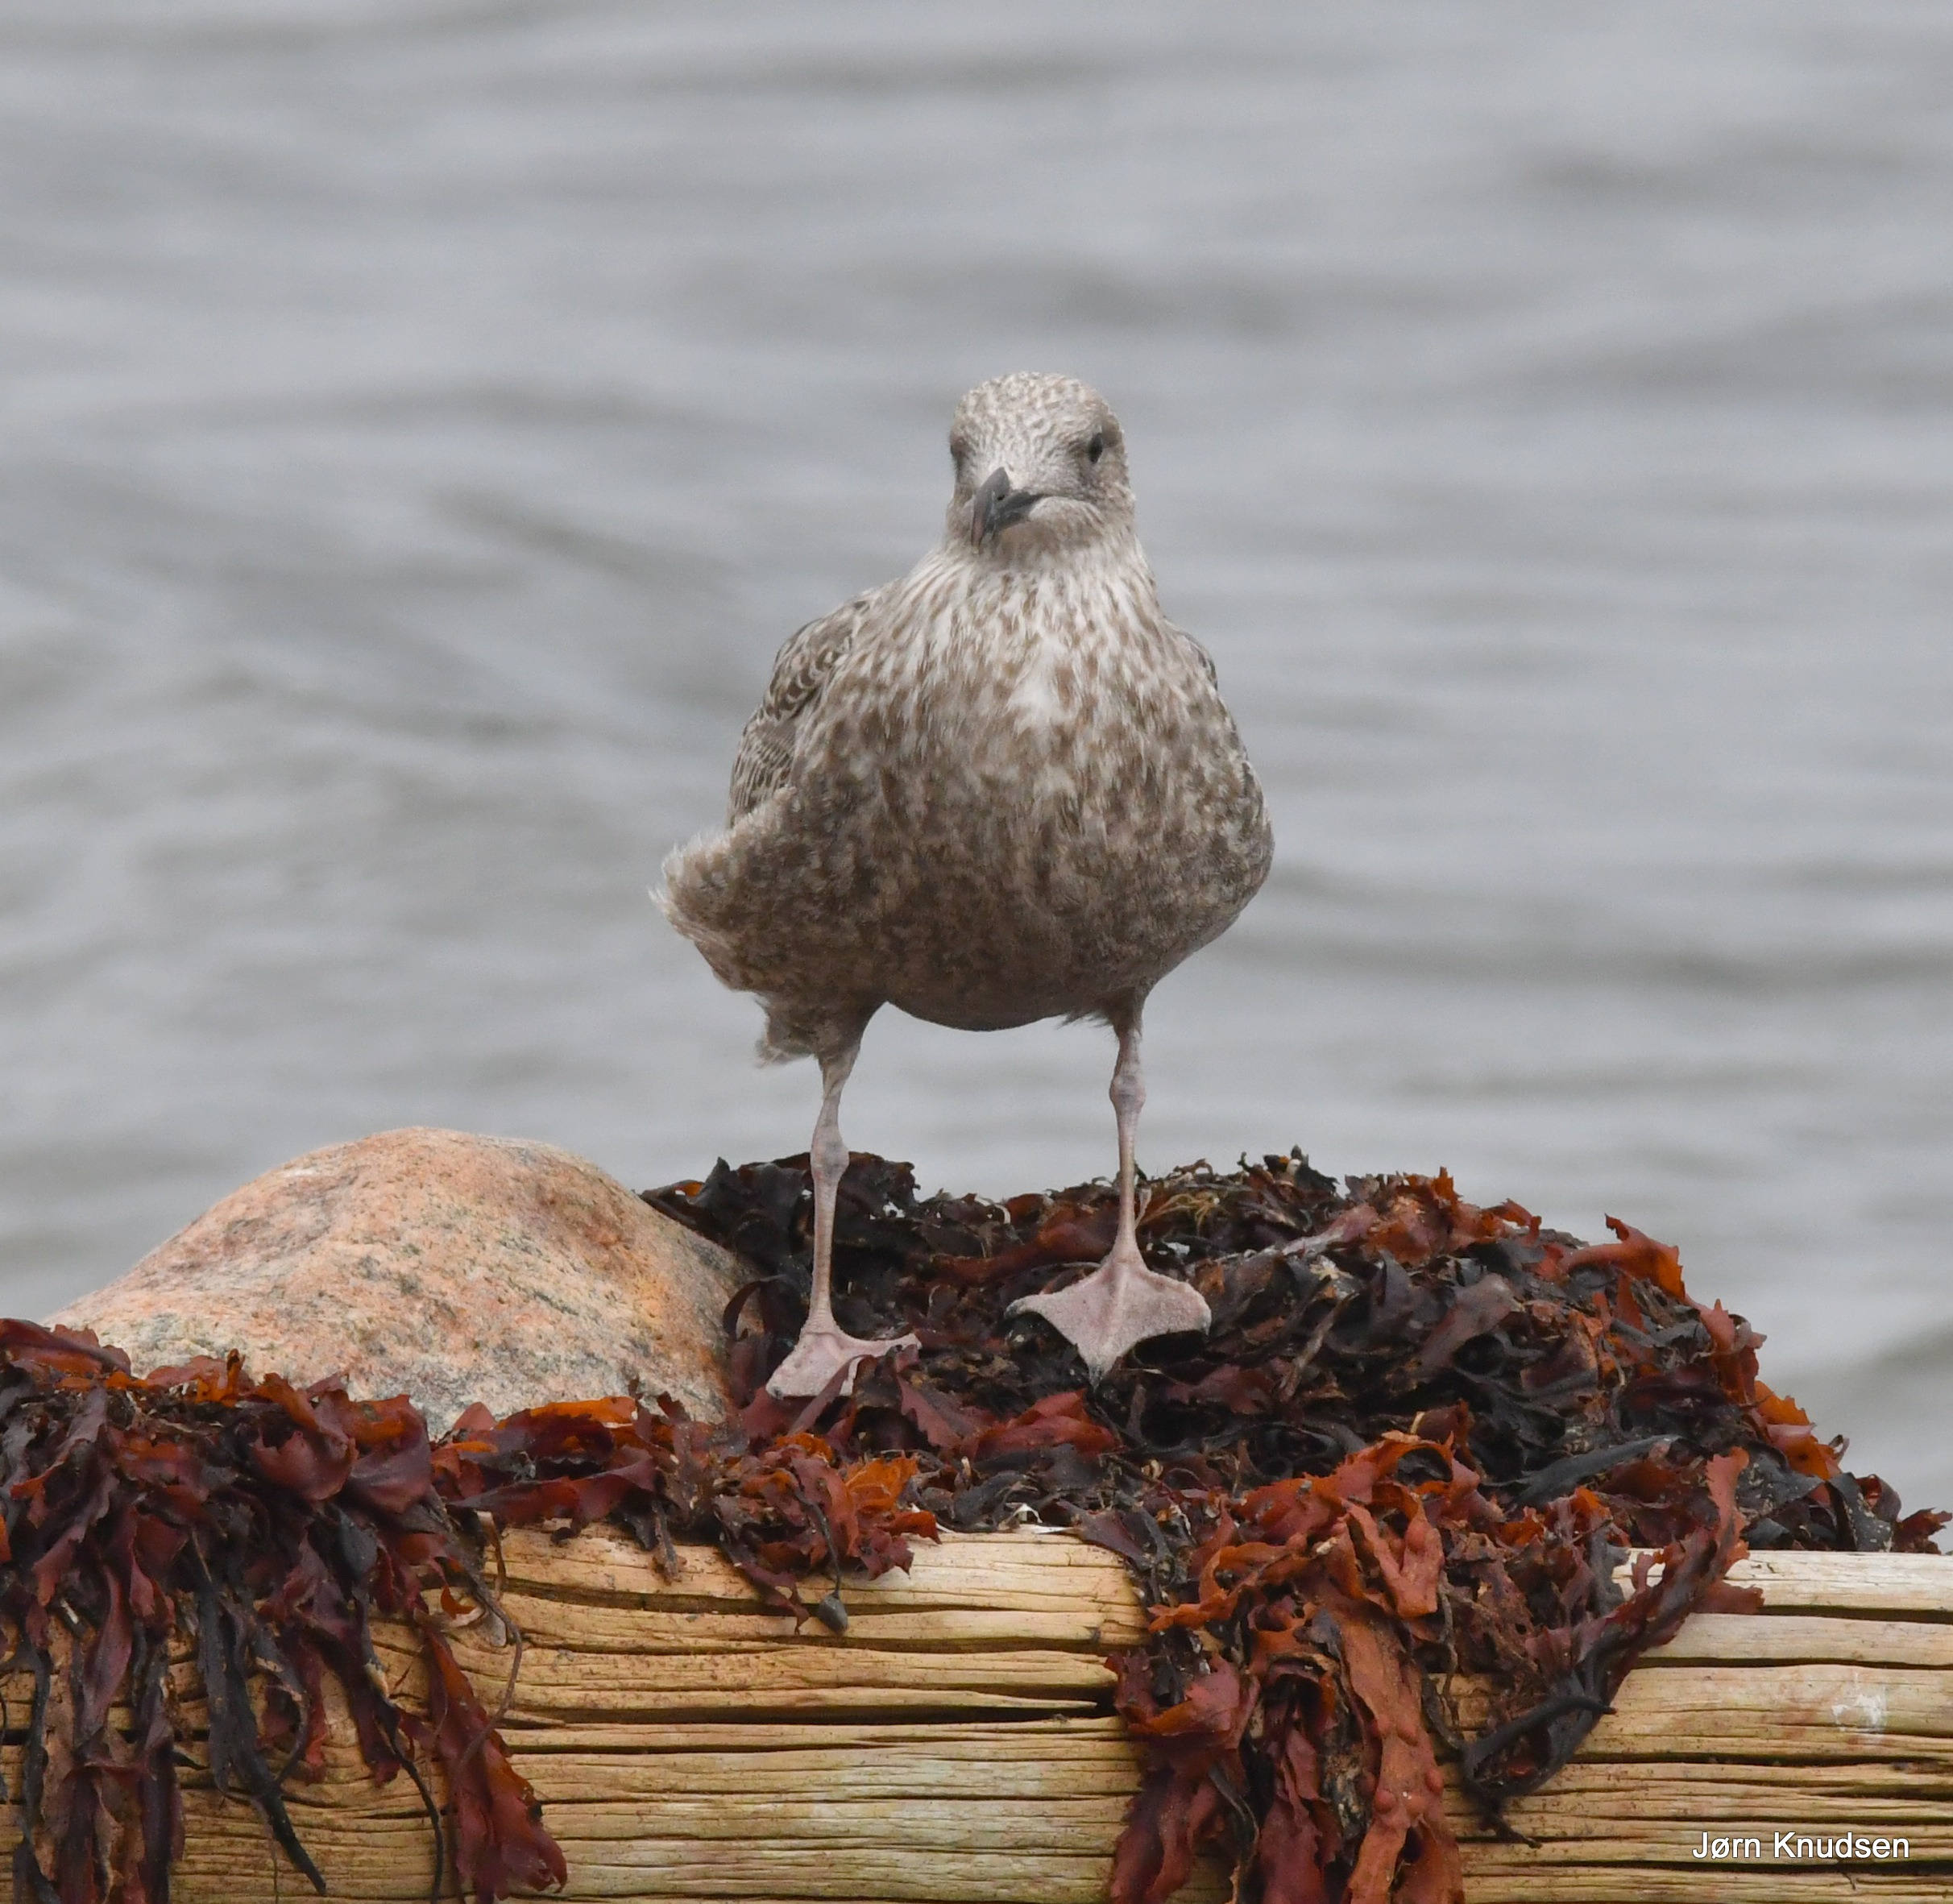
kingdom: Animalia
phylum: Chordata
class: Aves
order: Charadriiformes
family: Laridae
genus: Larus
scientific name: Larus argentatus
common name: Sølvmåge
